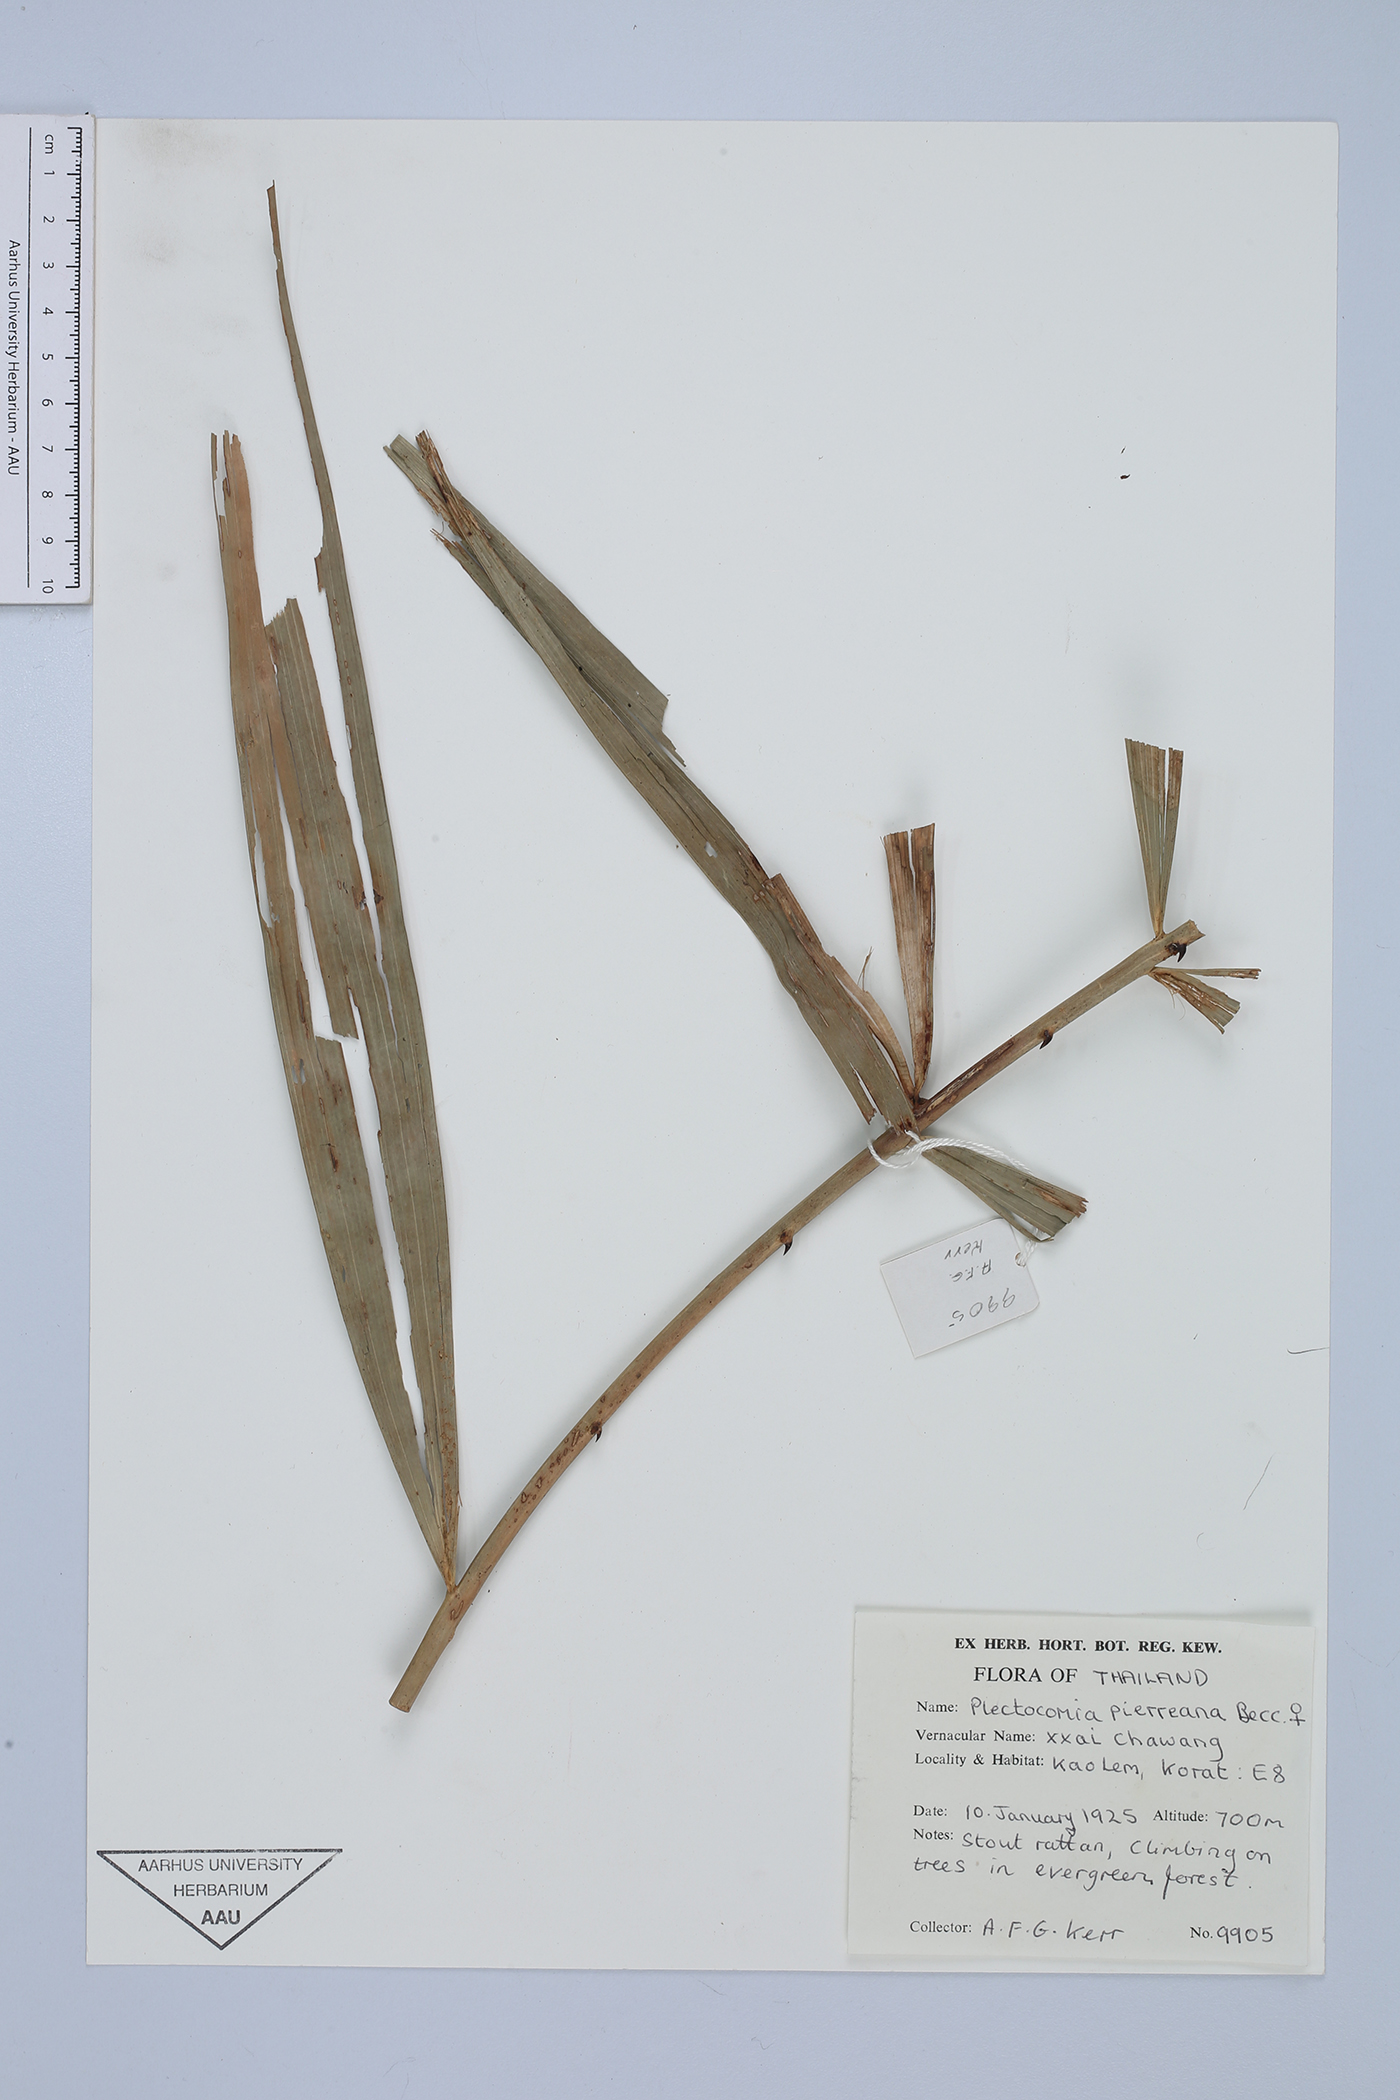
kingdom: Plantae
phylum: Tracheophyta
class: Liliopsida
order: Arecales
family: Arecaceae
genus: Plectocomia
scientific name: Plectocomia pierreana
